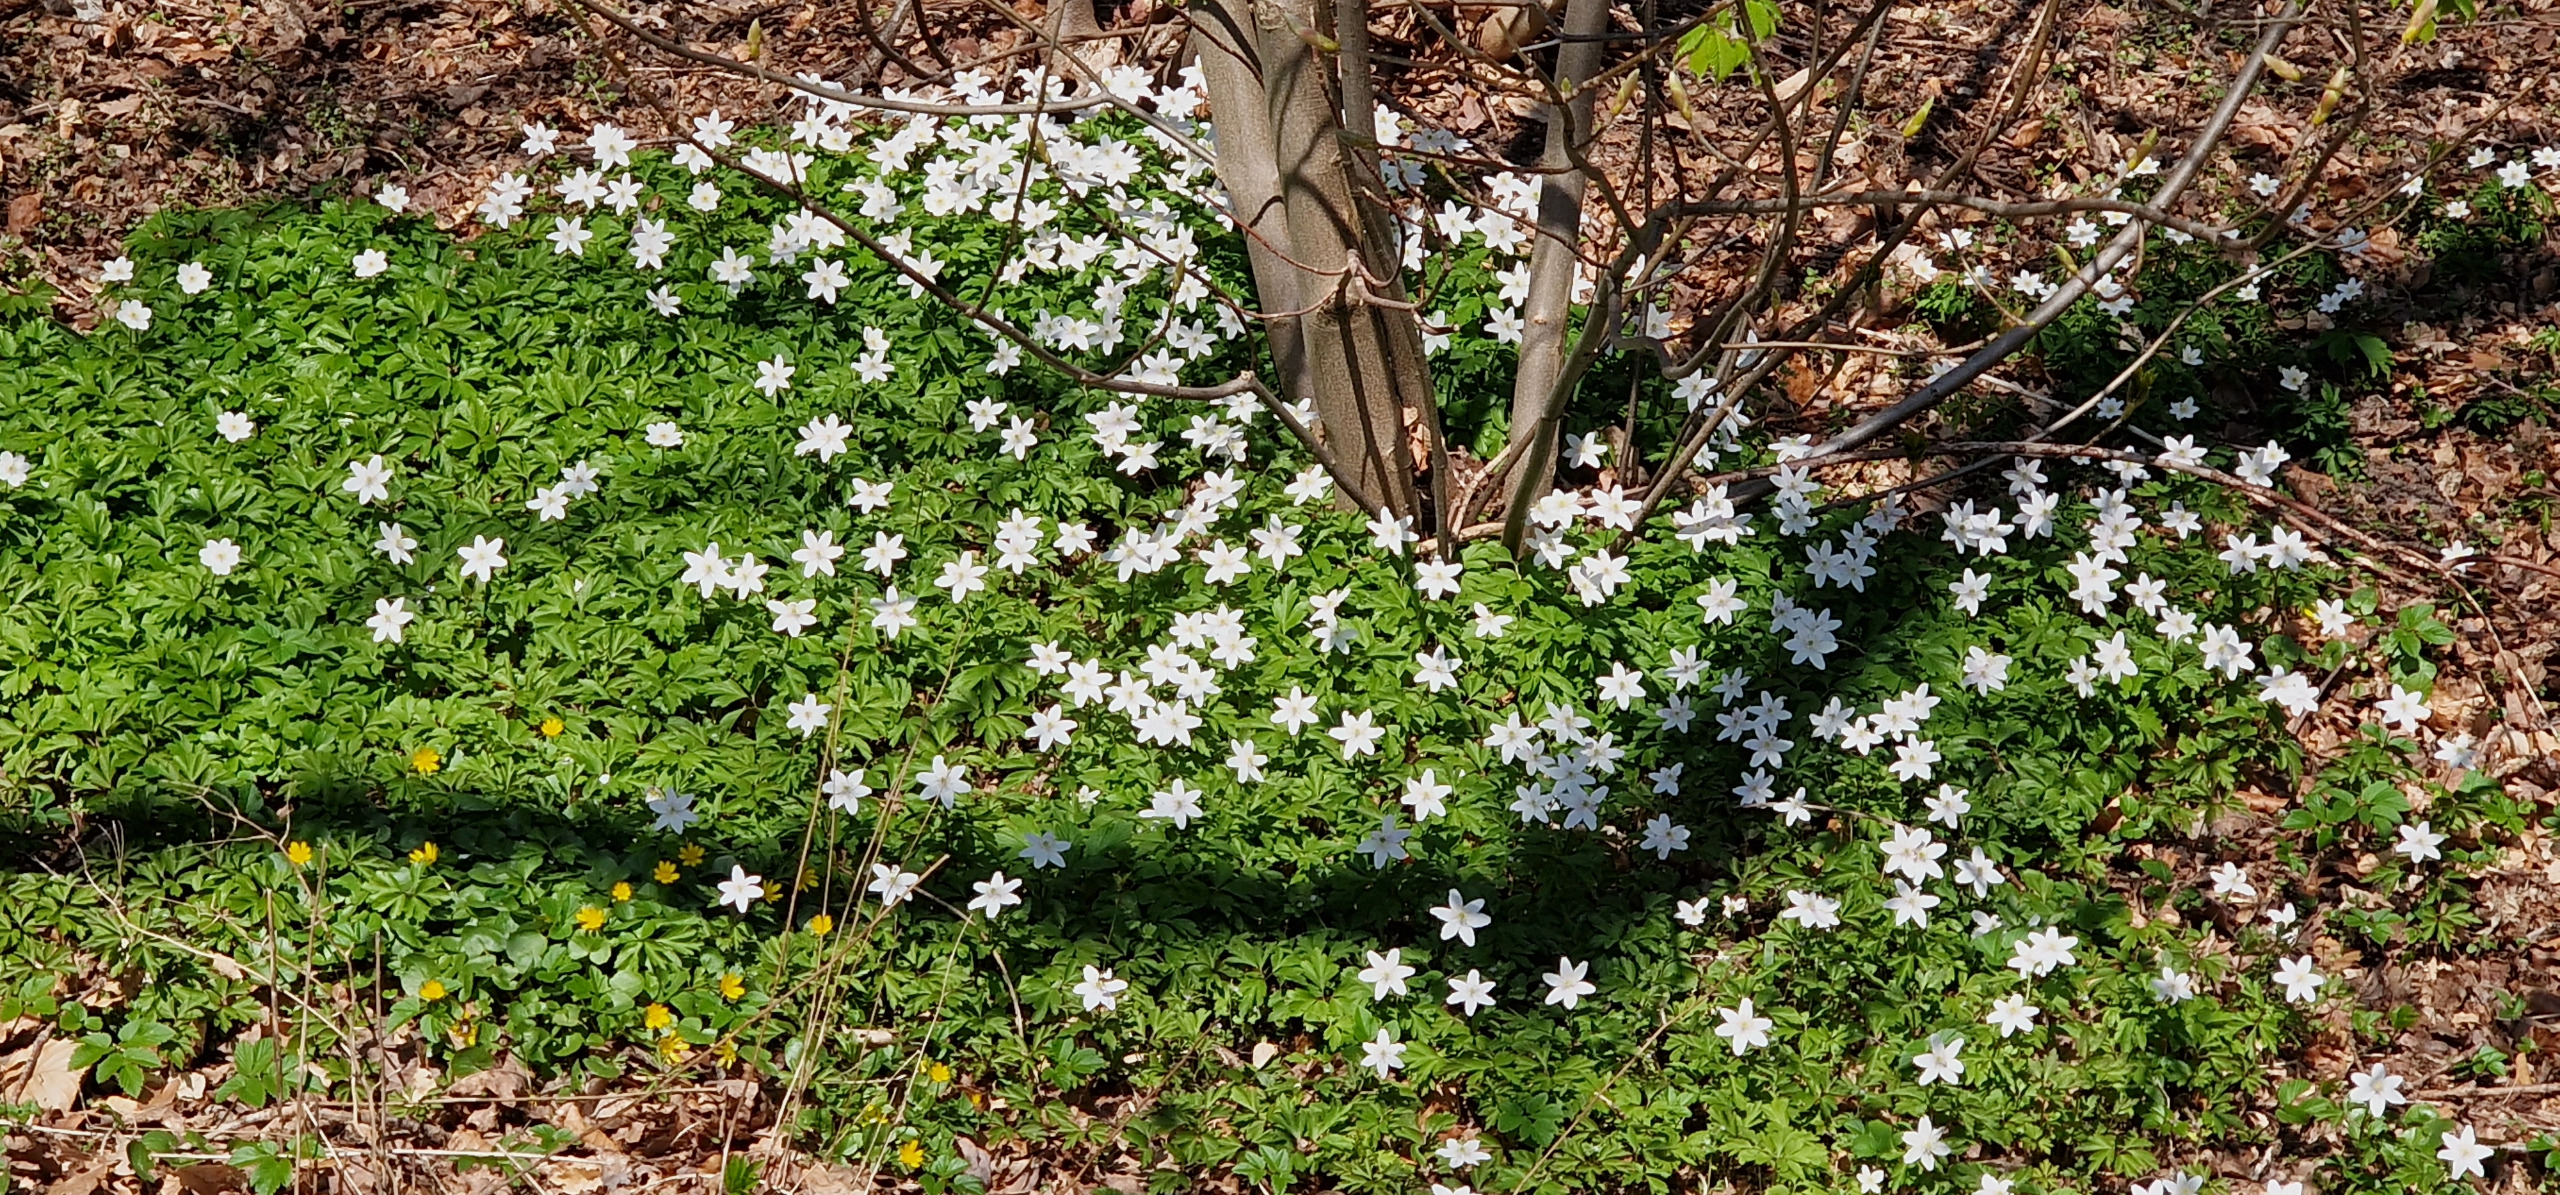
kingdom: Plantae
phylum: Tracheophyta
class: Magnoliopsida
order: Ranunculales
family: Ranunculaceae
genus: Anemone
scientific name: Anemone nemorosa
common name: Hvid anemone
